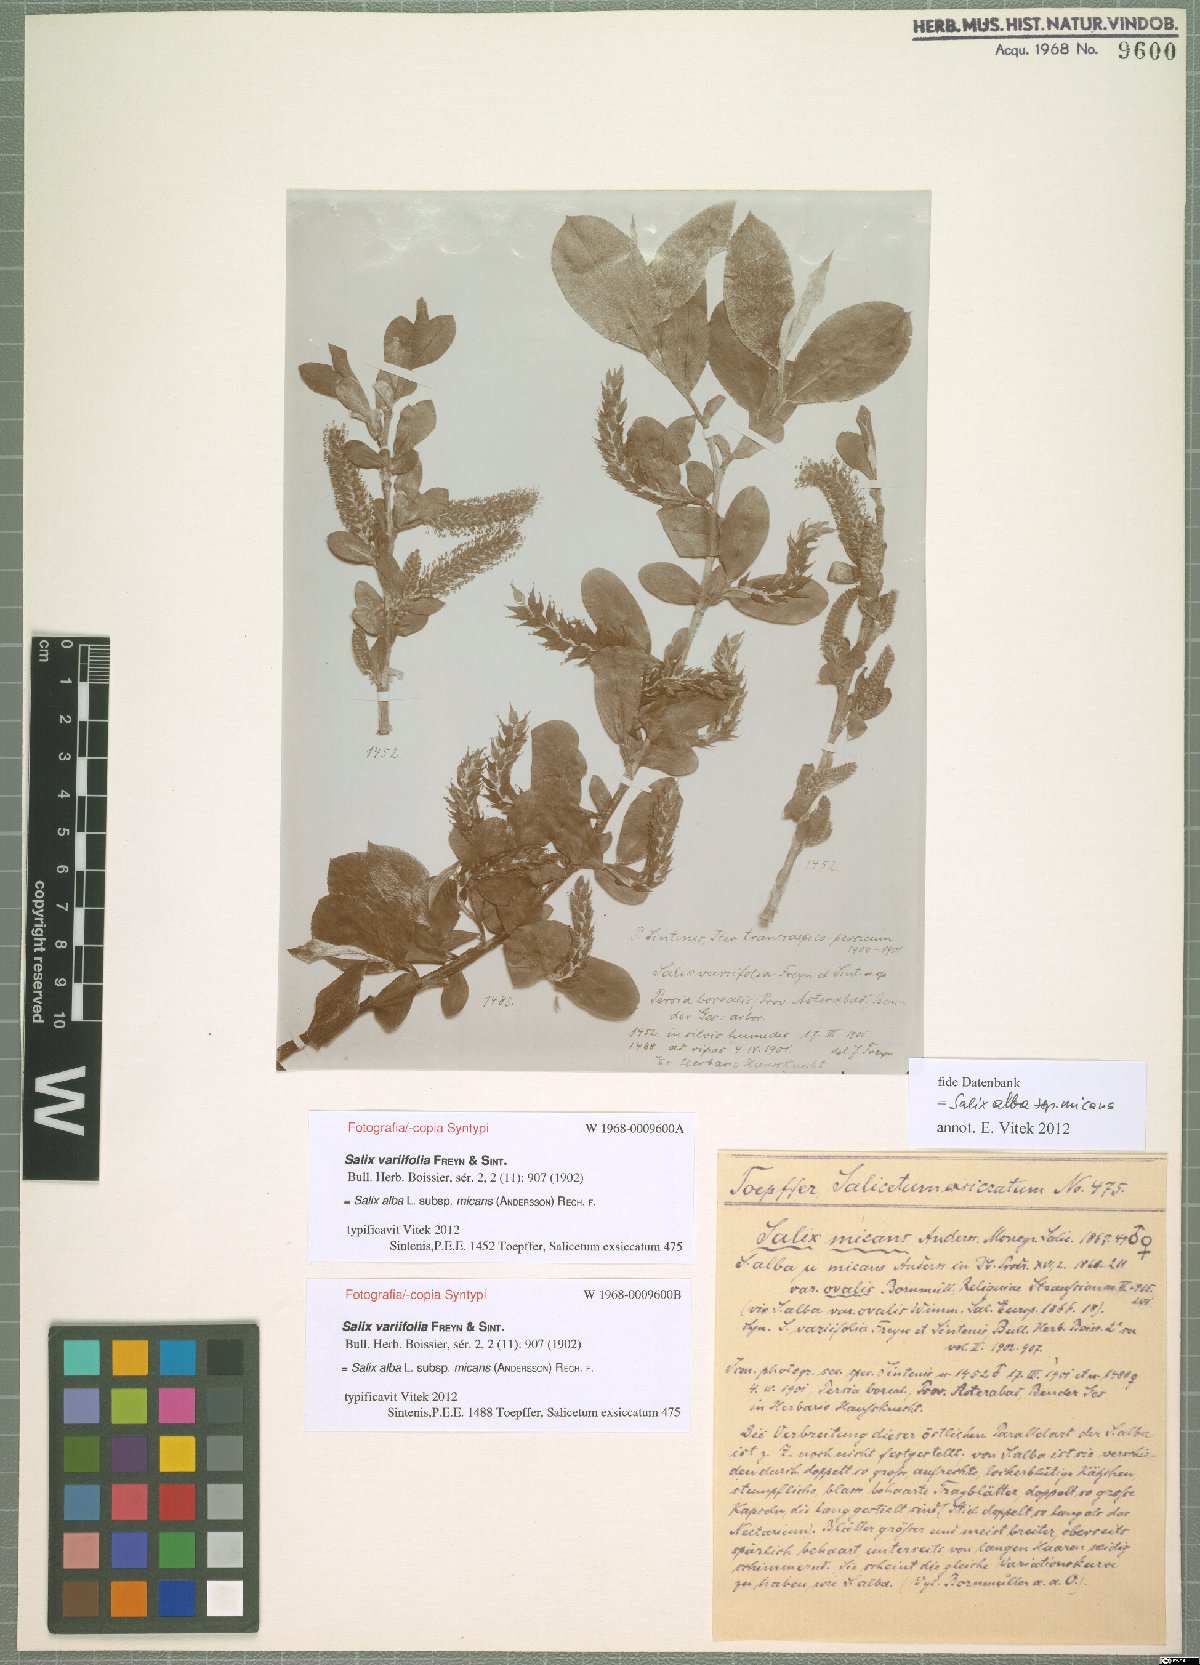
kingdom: Plantae
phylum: Tracheophyta
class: Magnoliopsida
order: Malpighiales
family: Salicaceae
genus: Salix
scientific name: Salix alba
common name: White willow
